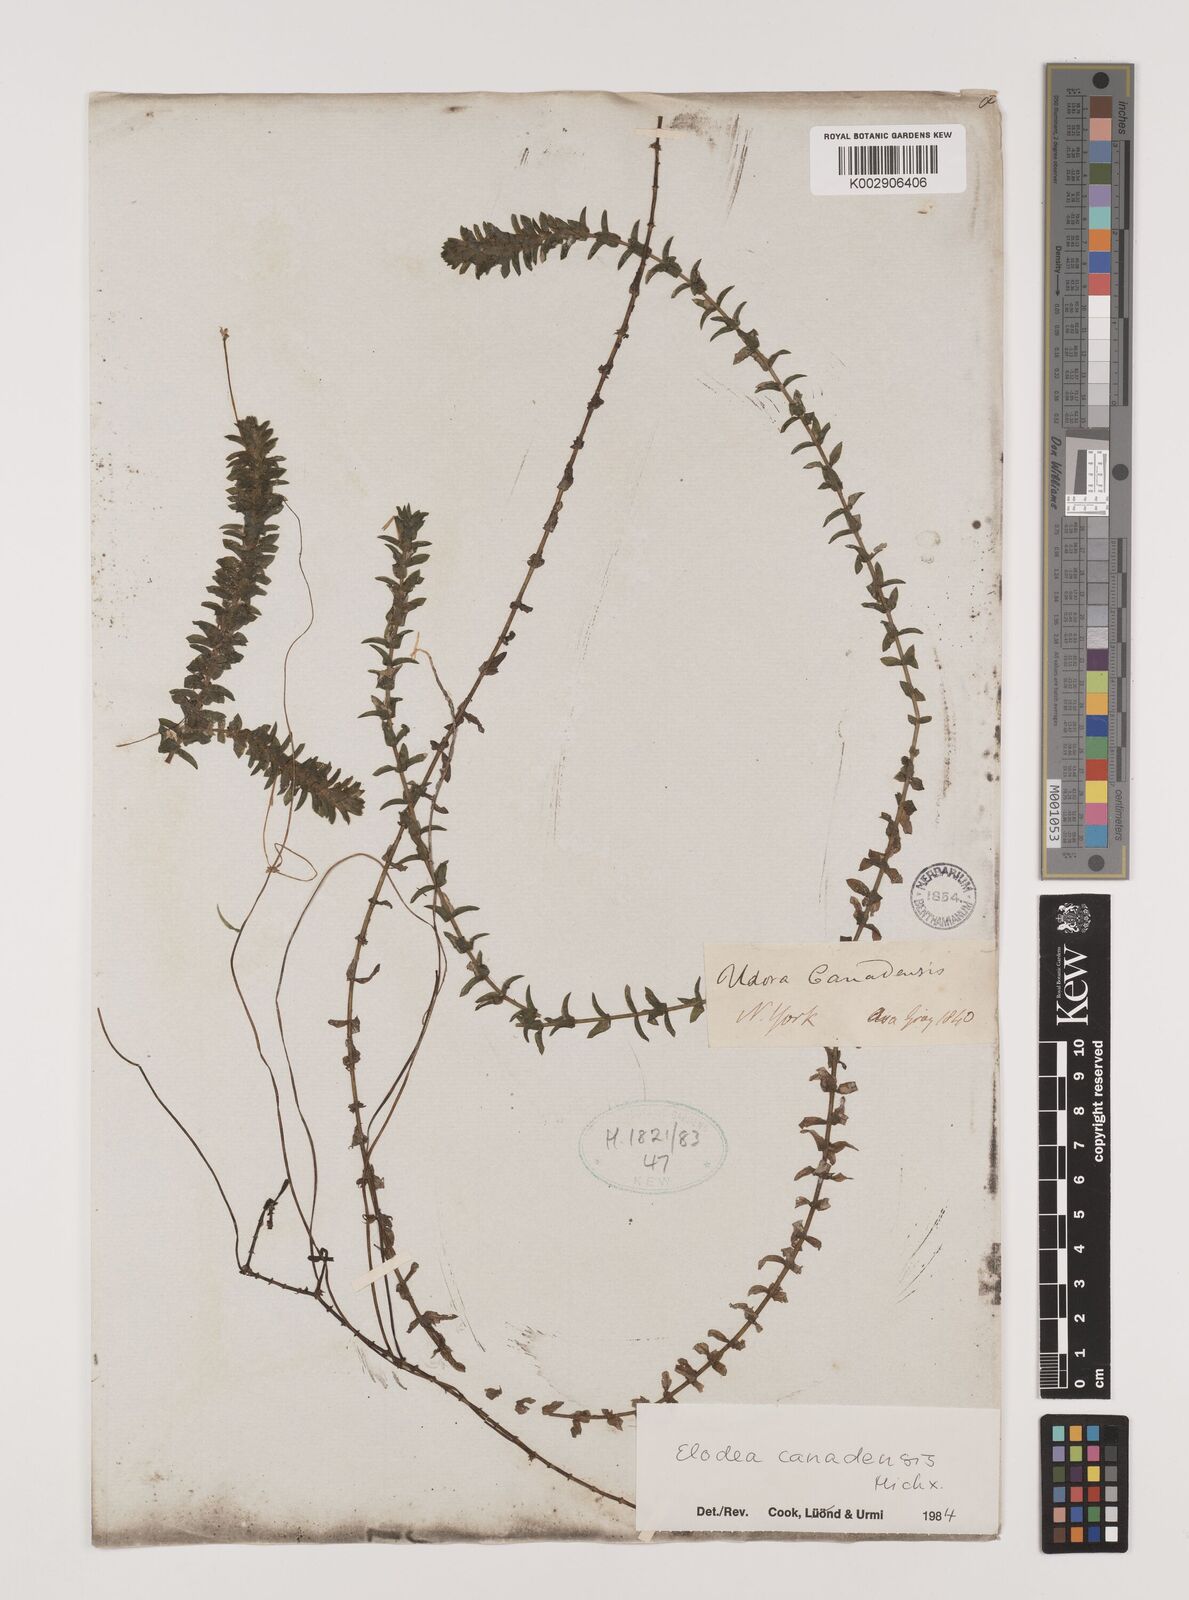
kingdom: Plantae
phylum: Tracheophyta
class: Liliopsida
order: Alismatales
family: Hydrocharitaceae
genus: Elodea
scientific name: Elodea canadensis
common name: Canadian waterweed
